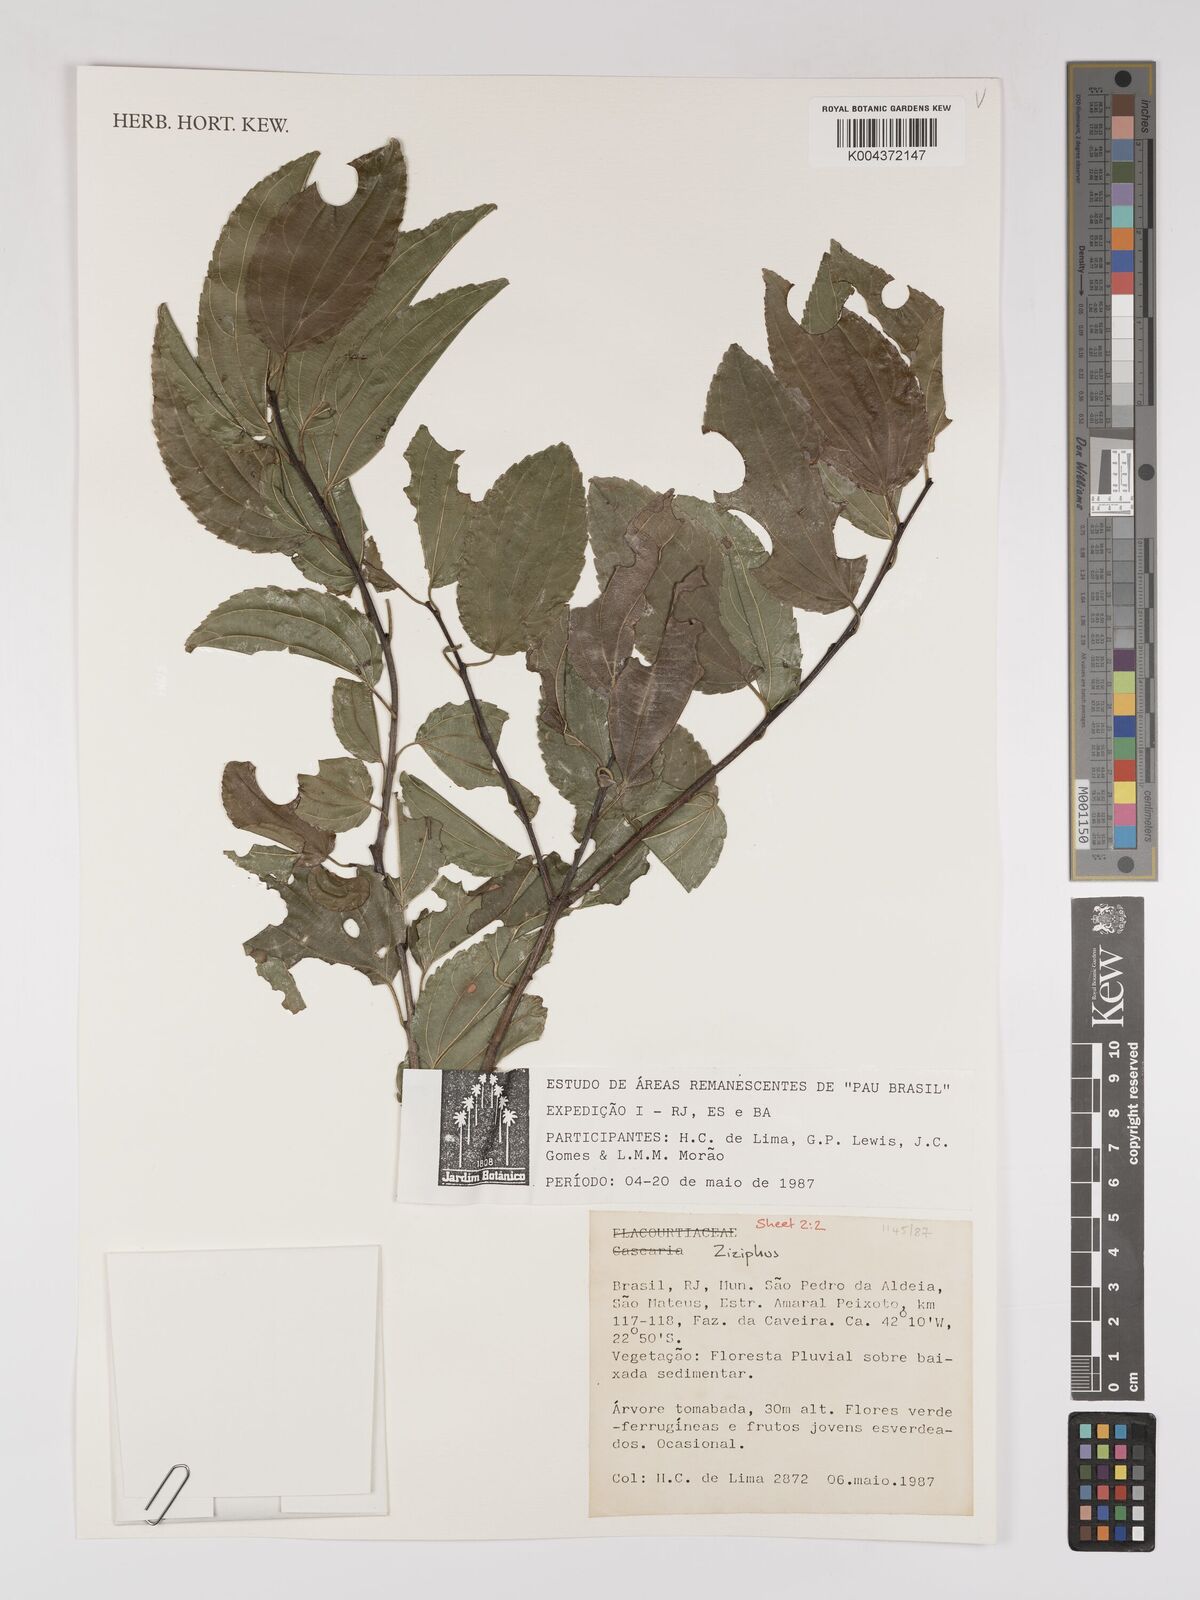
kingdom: Plantae
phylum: Tracheophyta
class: Magnoliopsida
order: Rosales
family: Rhamnaceae
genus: Ziziphus
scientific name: Ziziphus
